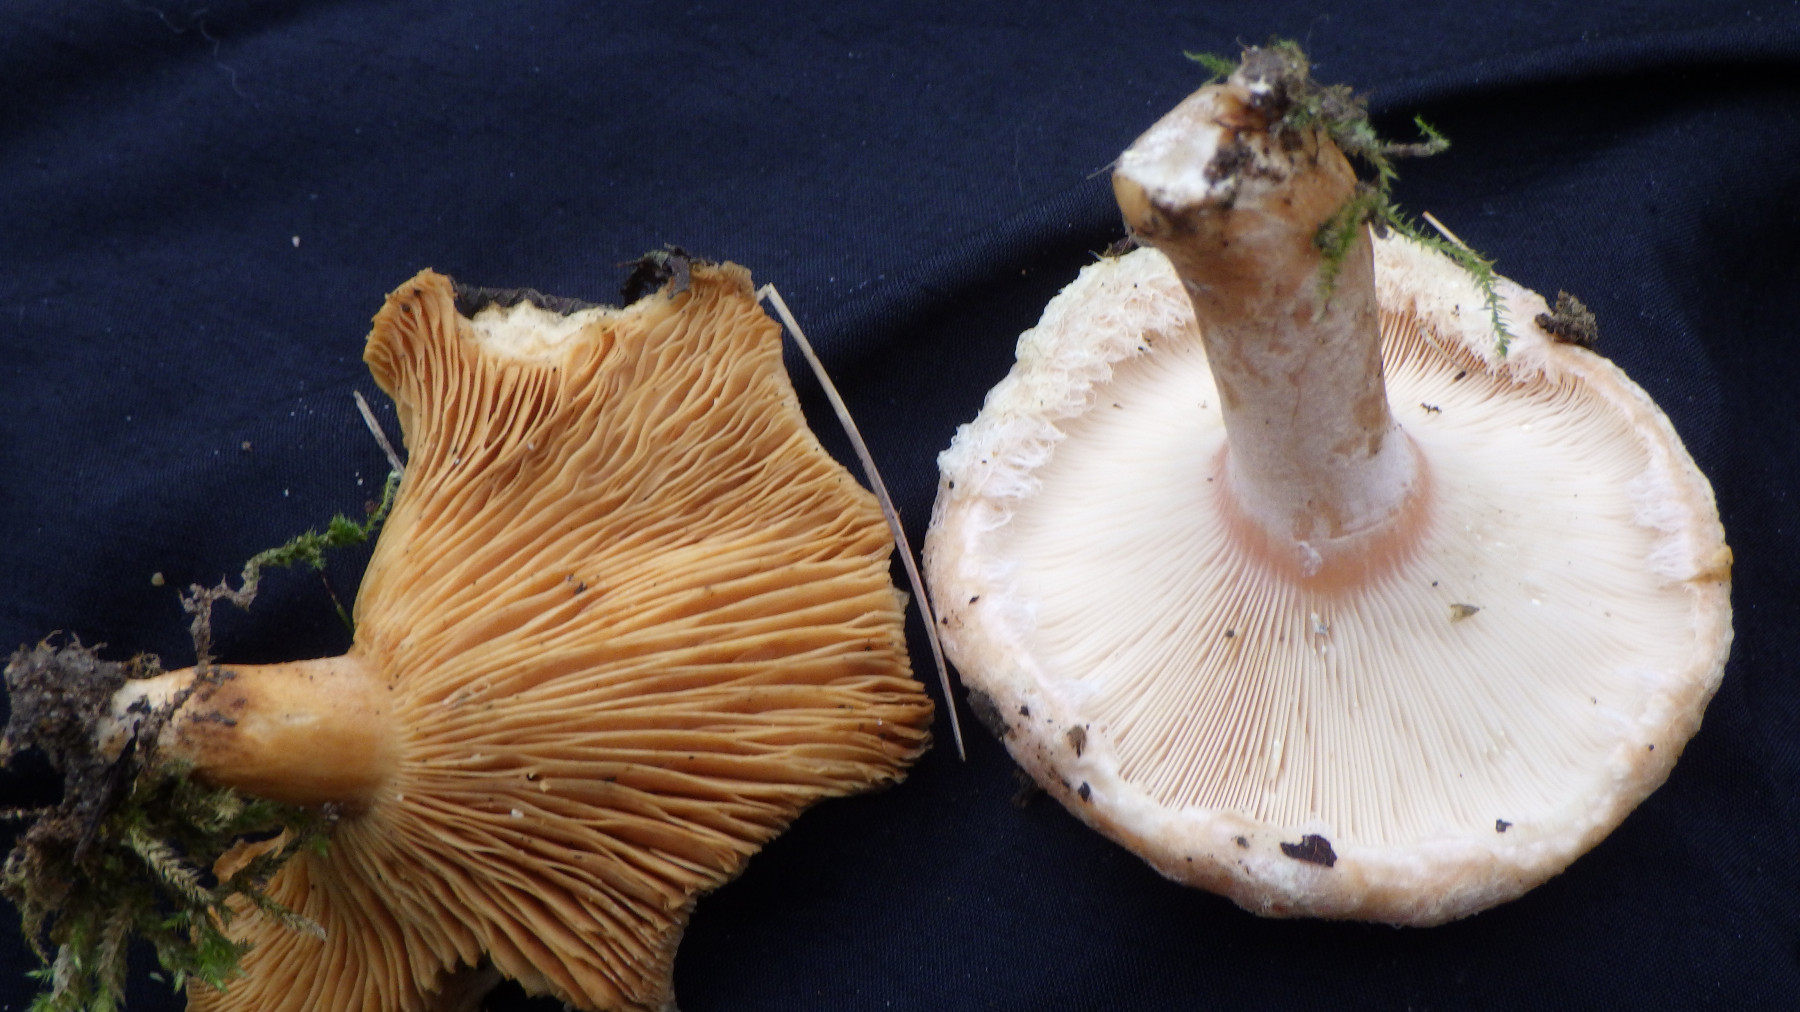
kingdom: Fungi
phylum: Basidiomycota
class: Agaricomycetes
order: Russulales
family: Russulaceae
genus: Lactarius
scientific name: Lactarius pubescens
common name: dunet mælkehat
